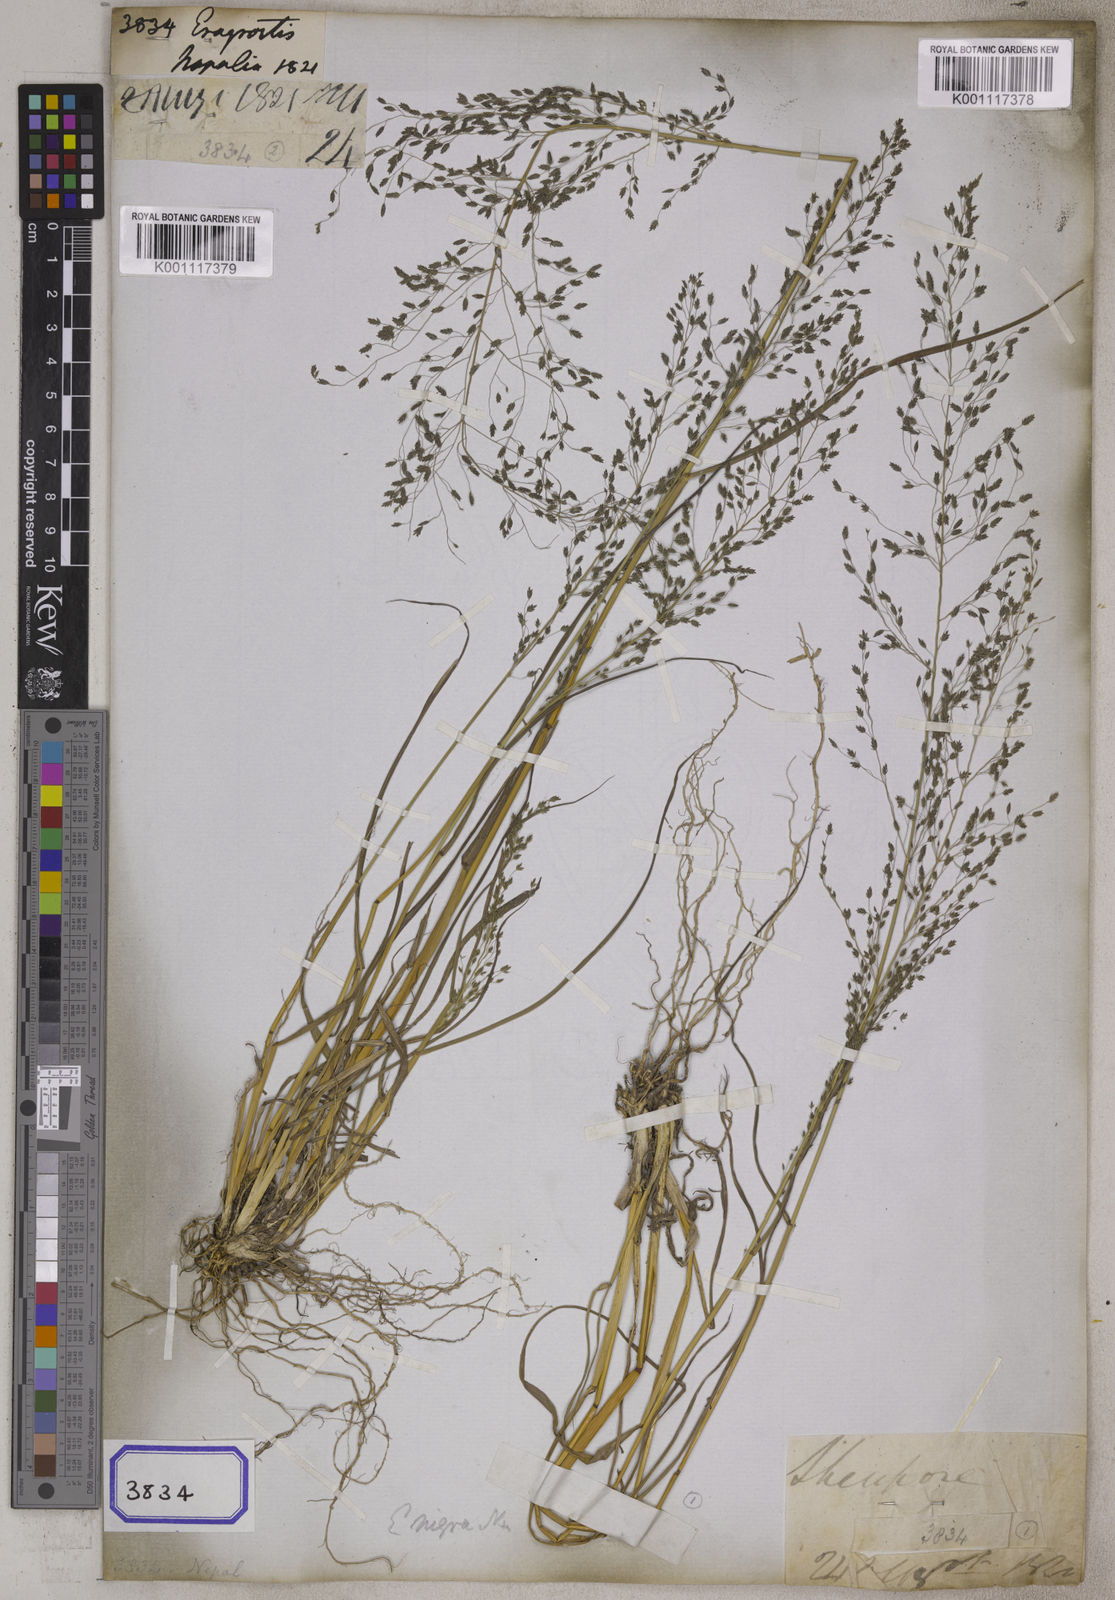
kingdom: Plantae
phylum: Tracheophyta
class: Liliopsida
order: Poales
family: Poaceae
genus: Eragrostis
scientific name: Eragrostis
